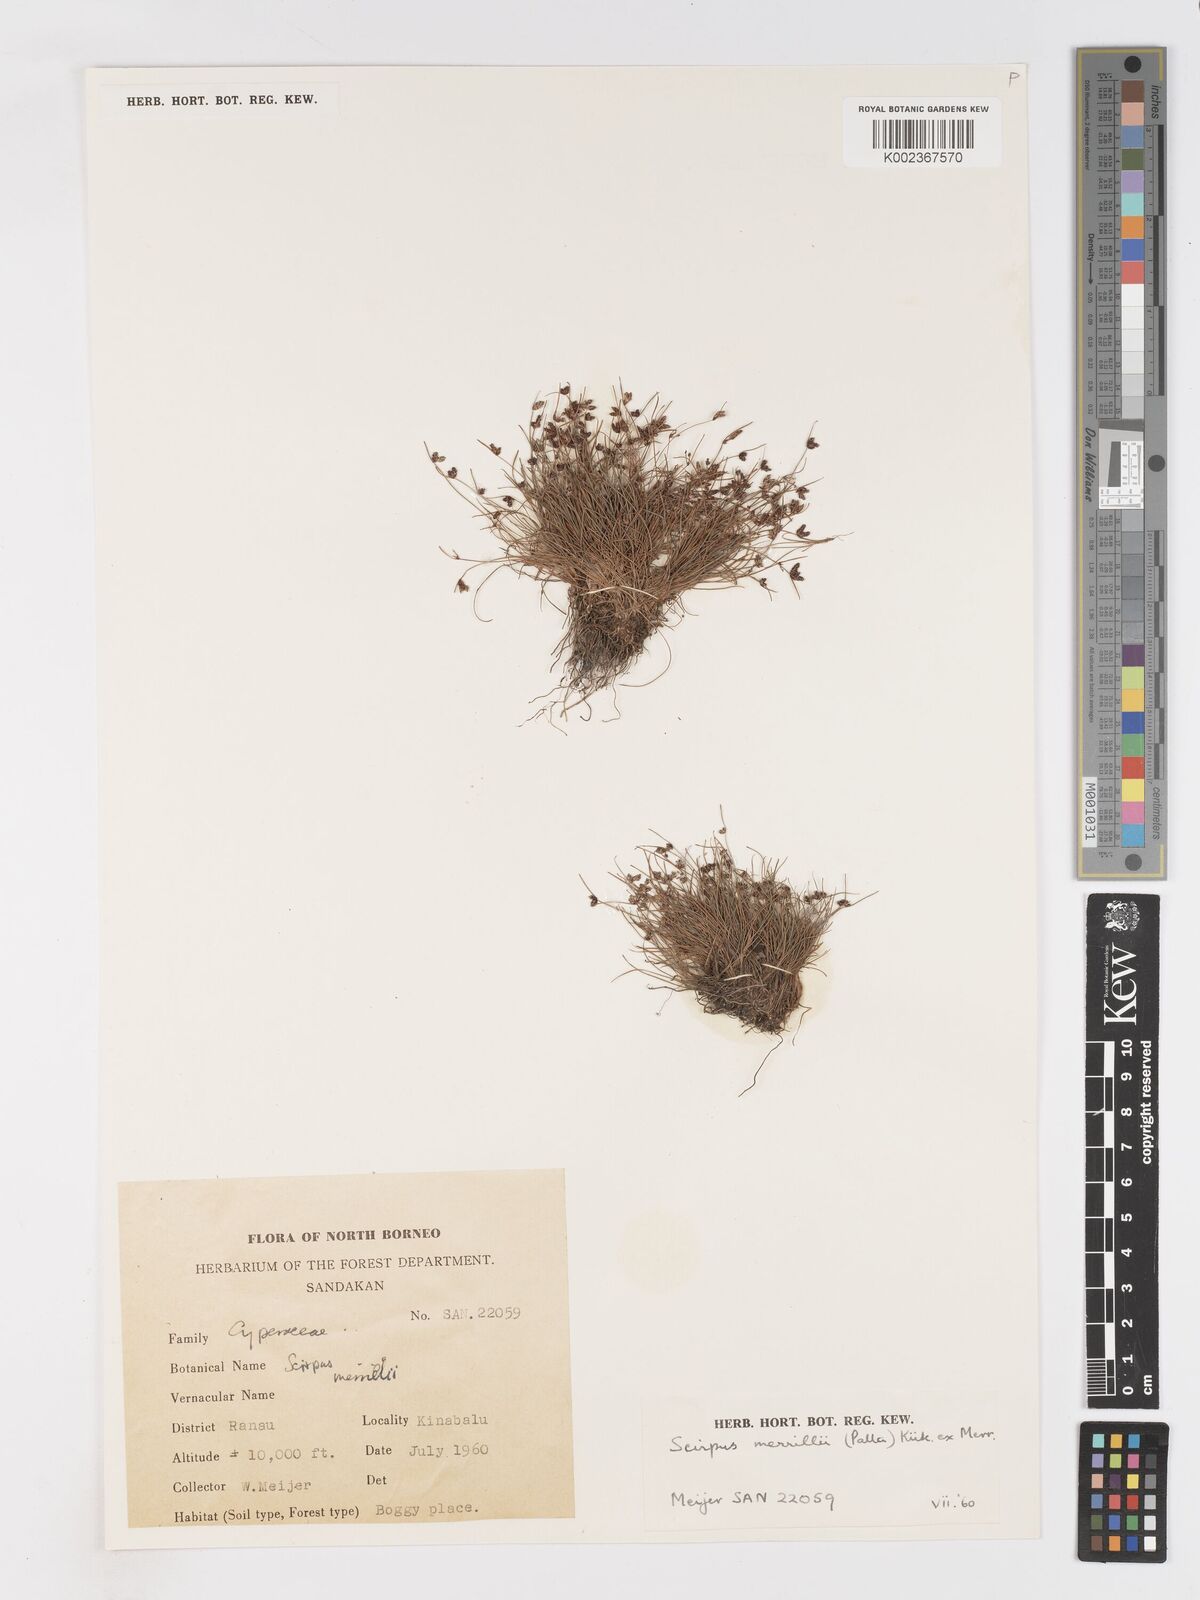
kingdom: Plantae
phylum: Tracheophyta
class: Liliopsida
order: Poales
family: Cyperaceae
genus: Isolepis
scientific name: Isolepis subtilissima
